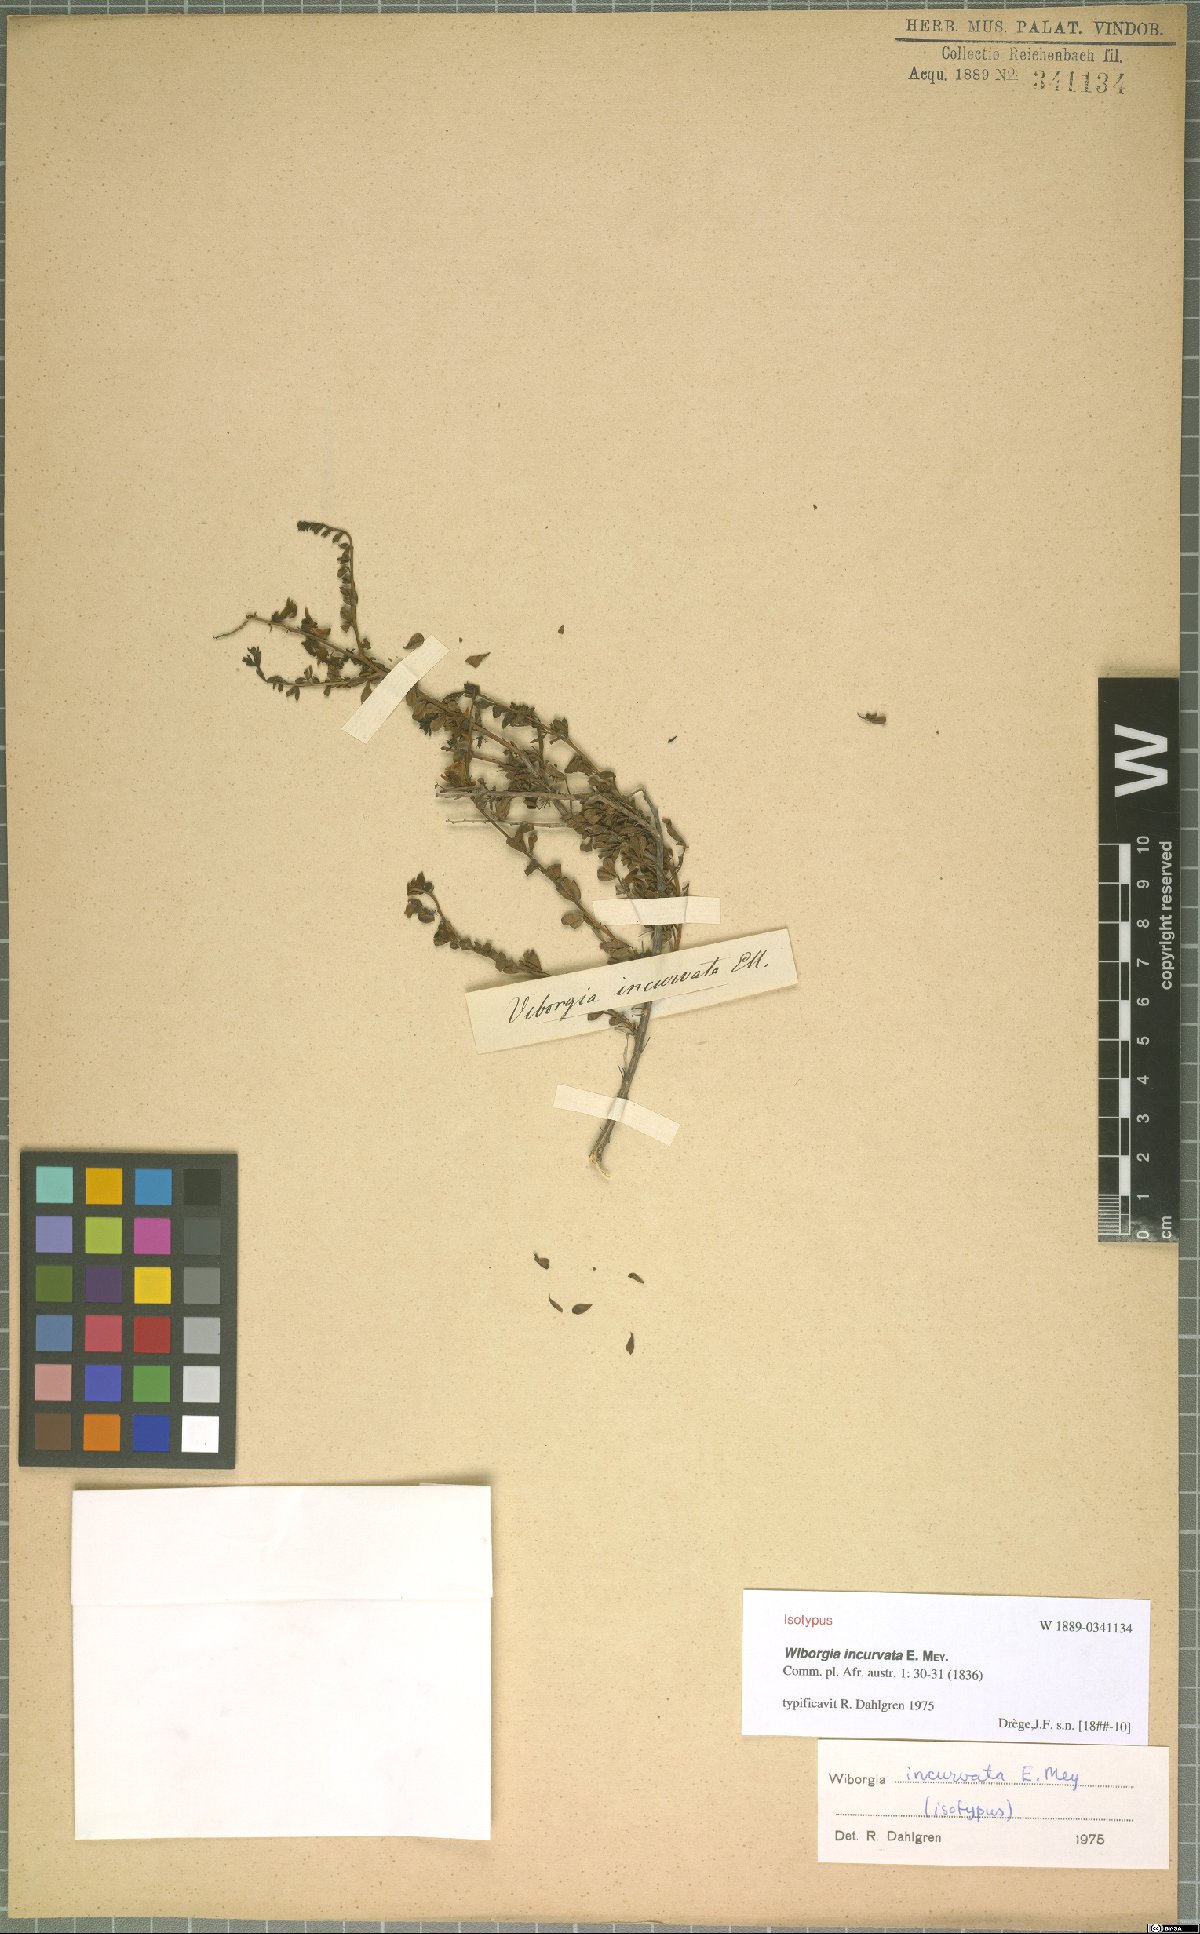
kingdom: Plantae
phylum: Tracheophyta
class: Magnoliopsida
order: Fabales
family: Fabaceae
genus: Wiborgia
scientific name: Wiborgia incurvata
